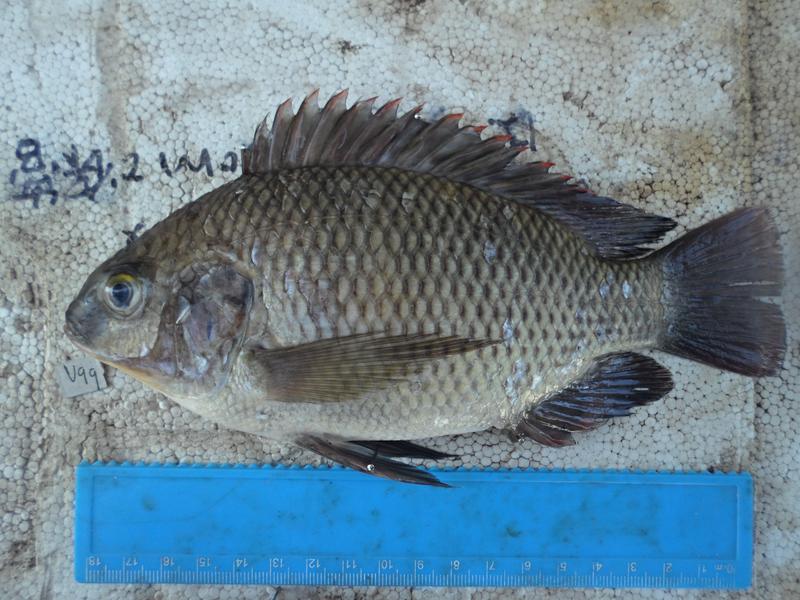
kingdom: Animalia
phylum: Chordata
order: Perciformes
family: Cichlidae
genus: Oreochromis
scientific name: Oreochromis variabilis
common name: Victoria tilapia
